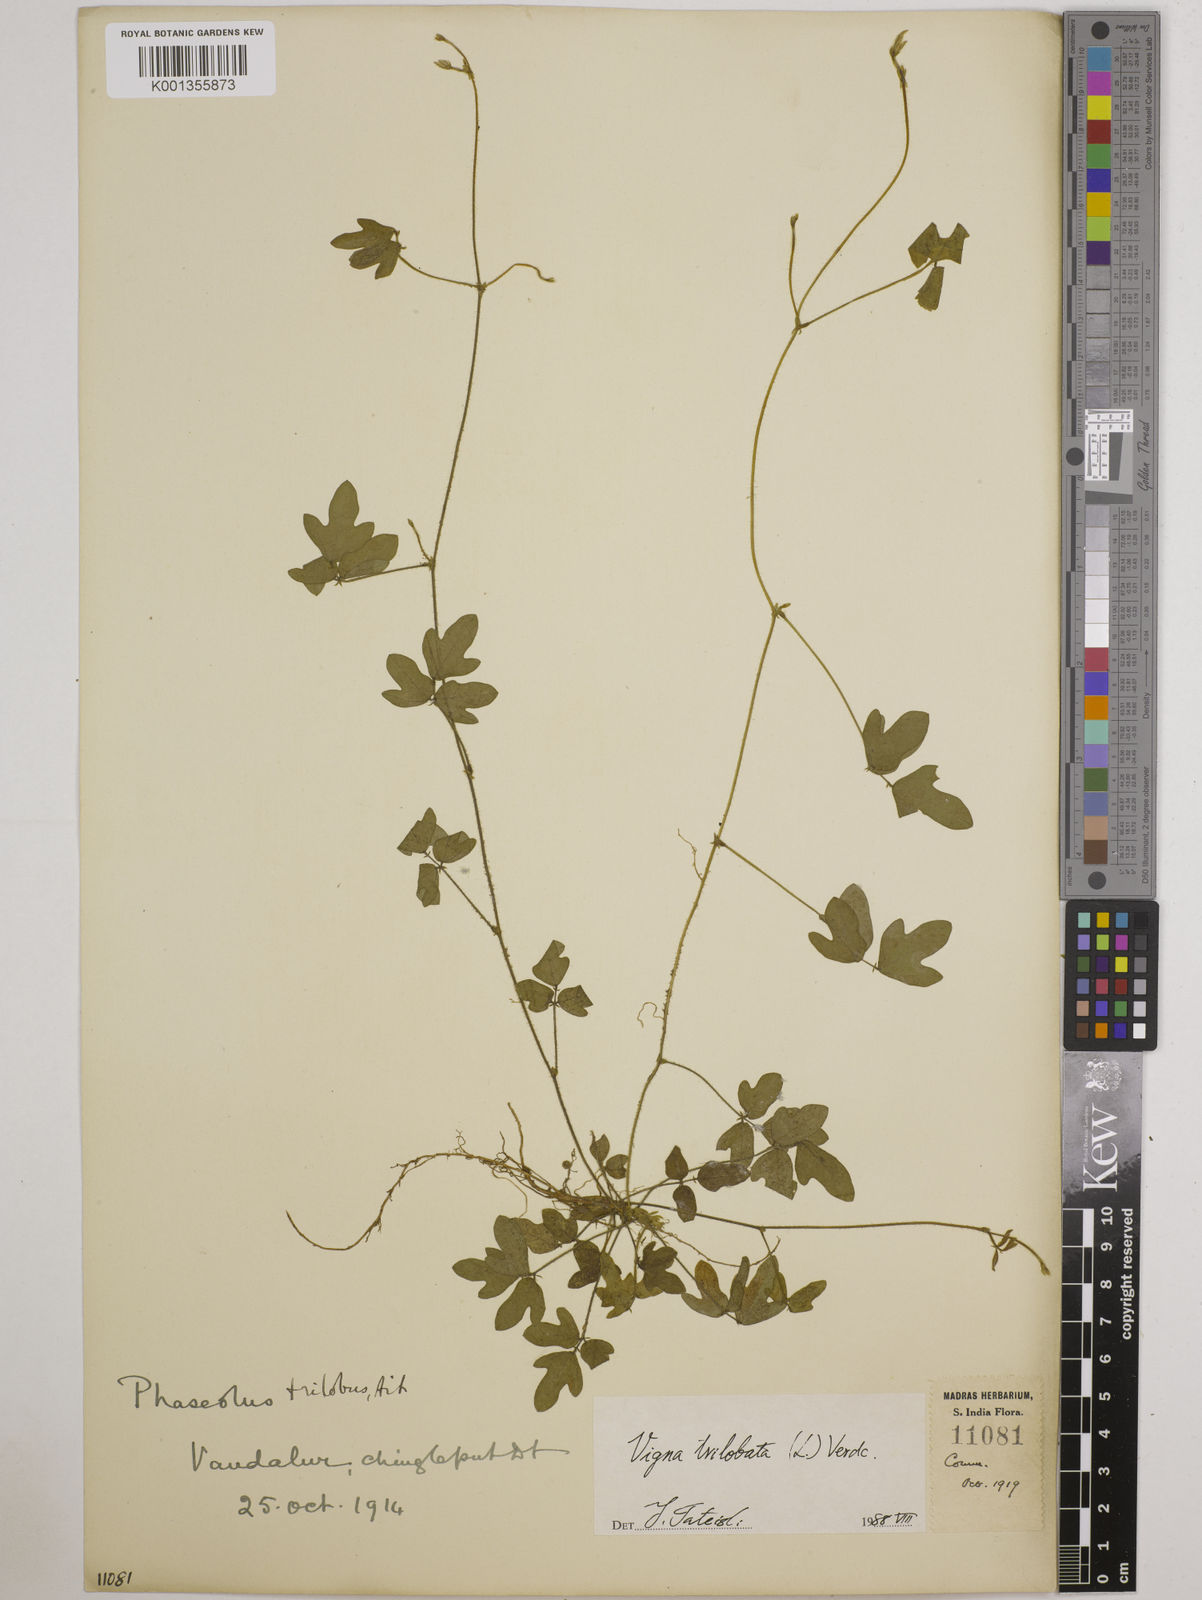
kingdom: Plantae
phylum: Tracheophyta
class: Magnoliopsida
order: Fabales
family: Fabaceae
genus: Vigna
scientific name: Vigna trilobata
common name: Jungli-bean
